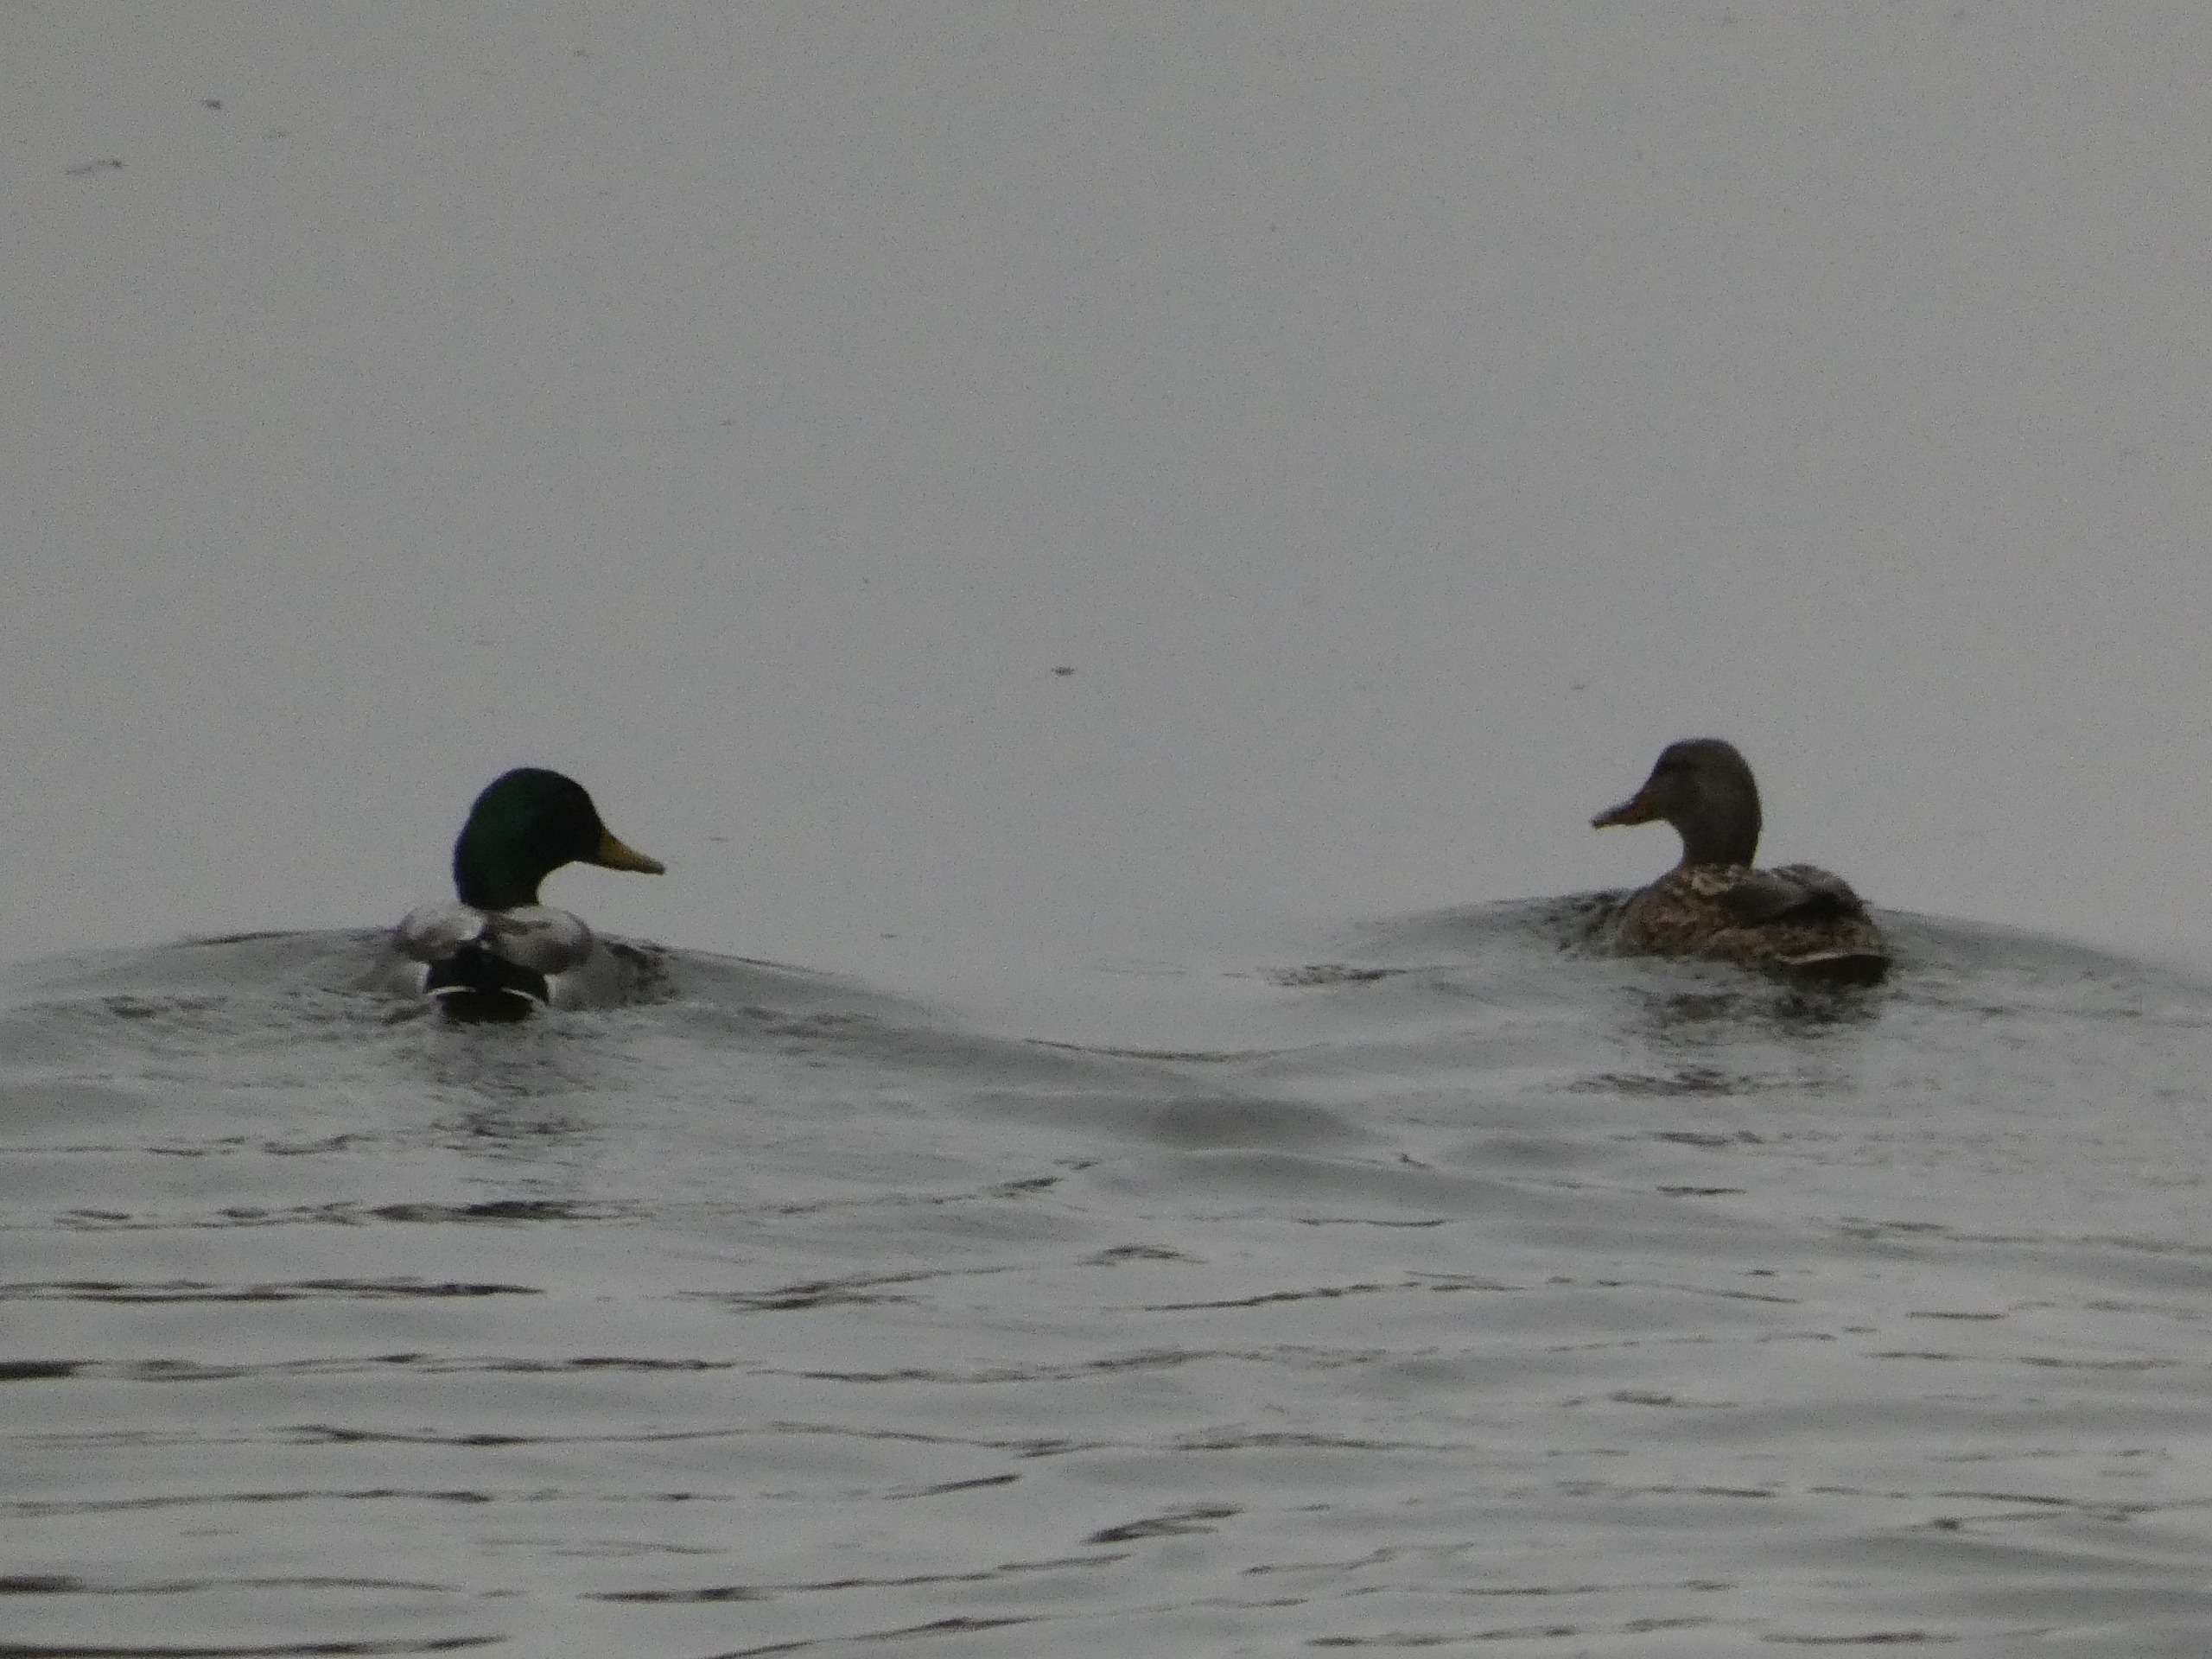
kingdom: Animalia
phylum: Chordata
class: Aves
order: Anseriformes
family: Anatidae
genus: Anas
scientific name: Anas platyrhynchos
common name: Gråand
